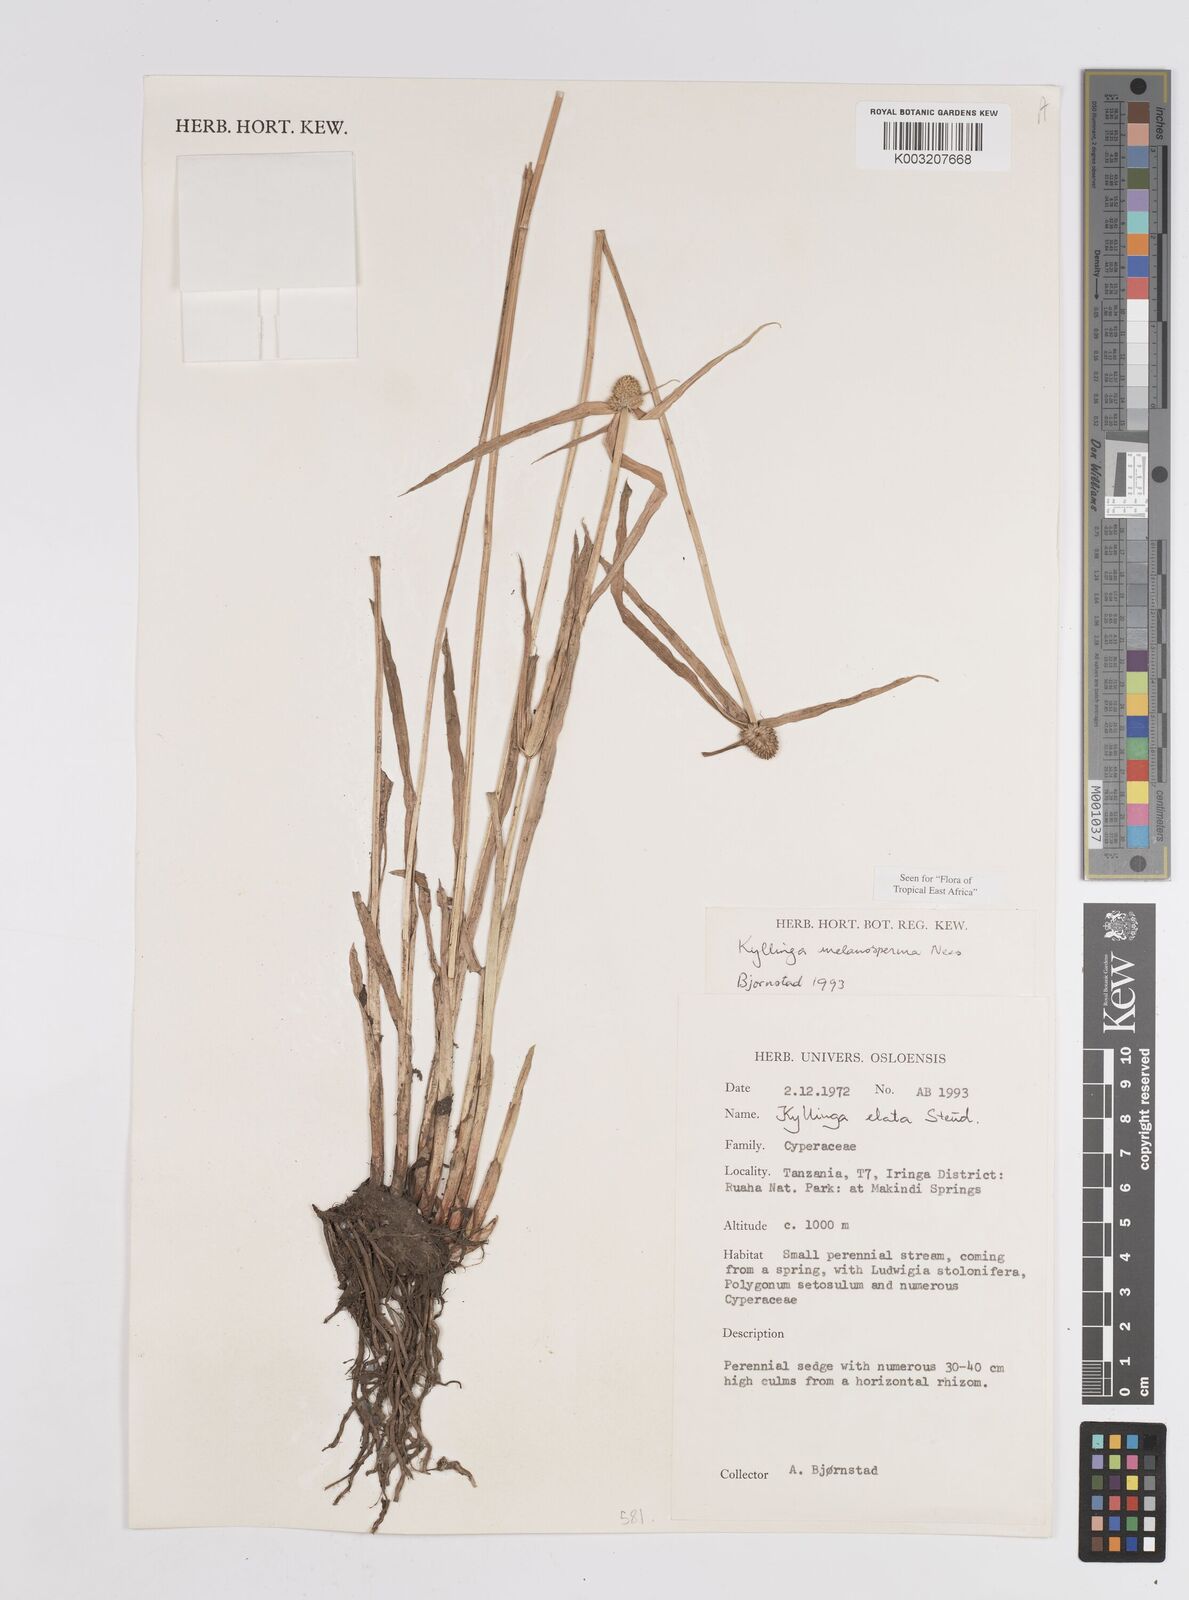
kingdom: Plantae
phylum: Tracheophyta
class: Liliopsida
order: Poales
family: Cyperaceae
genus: Cyperus
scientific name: Cyperus melanospermus
